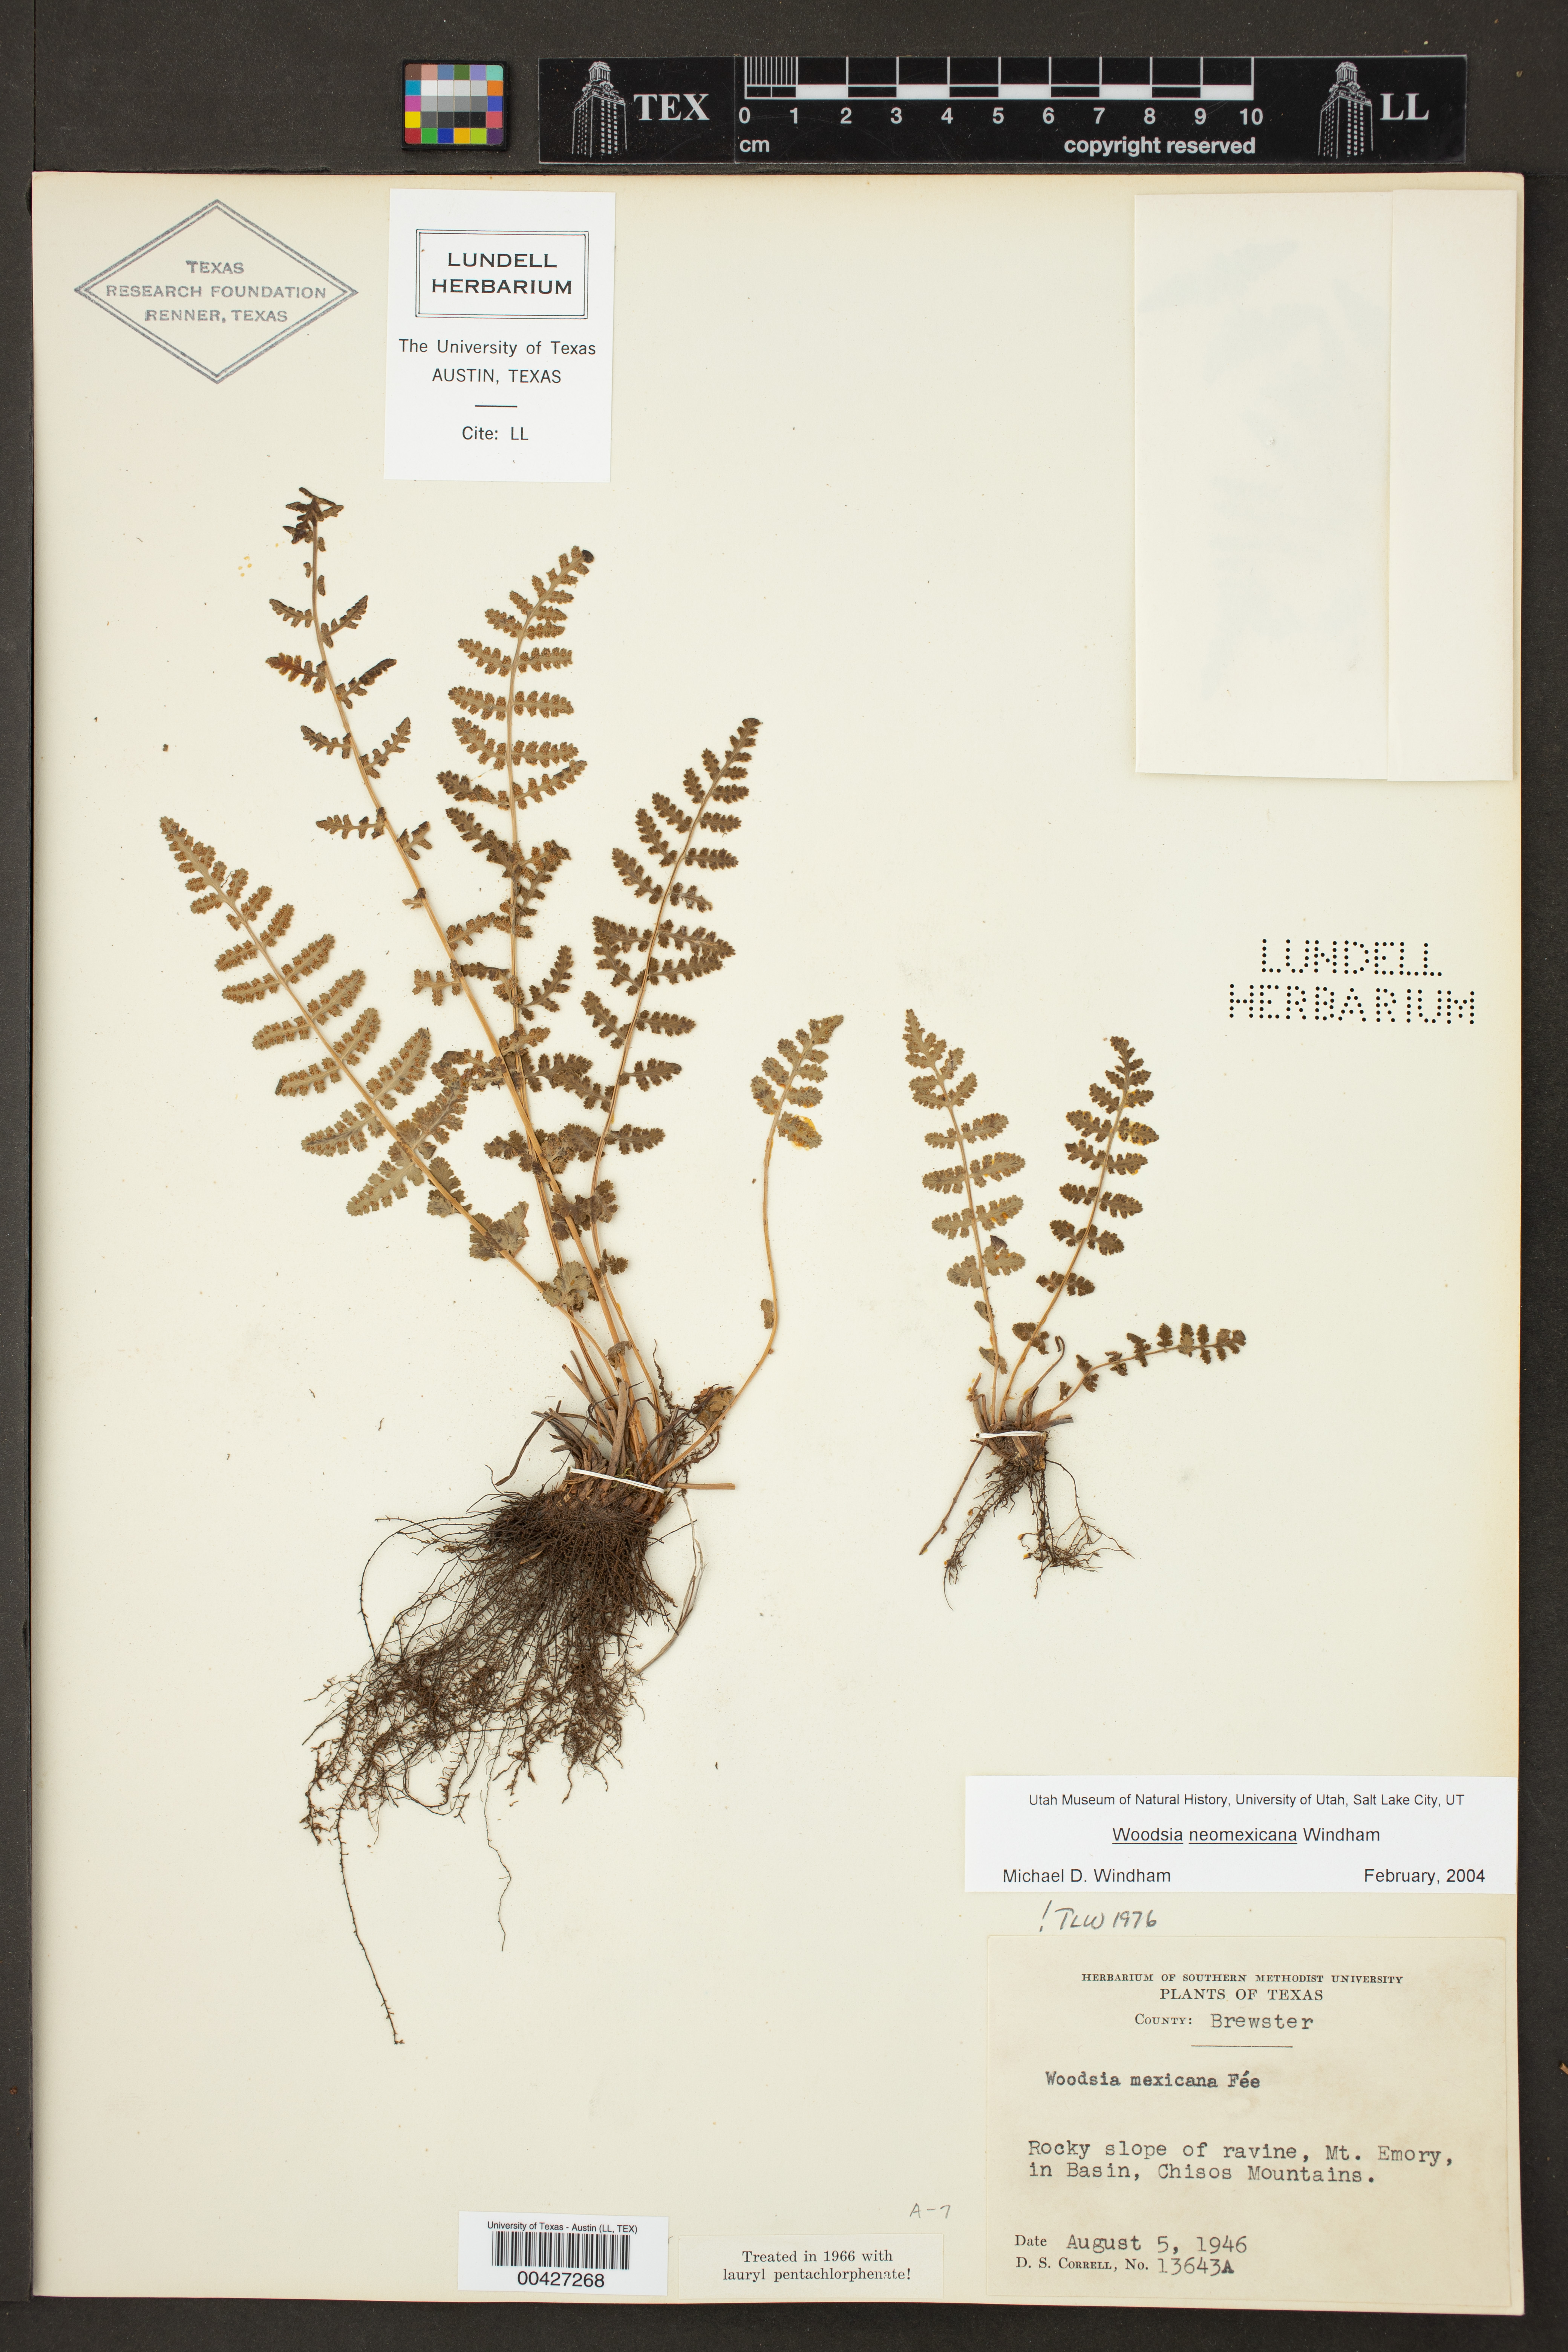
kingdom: Plantae
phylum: Tracheophyta
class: Polypodiopsida
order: Polypodiales
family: Woodsiaceae
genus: Physematium
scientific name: Physematium neomexicanum
